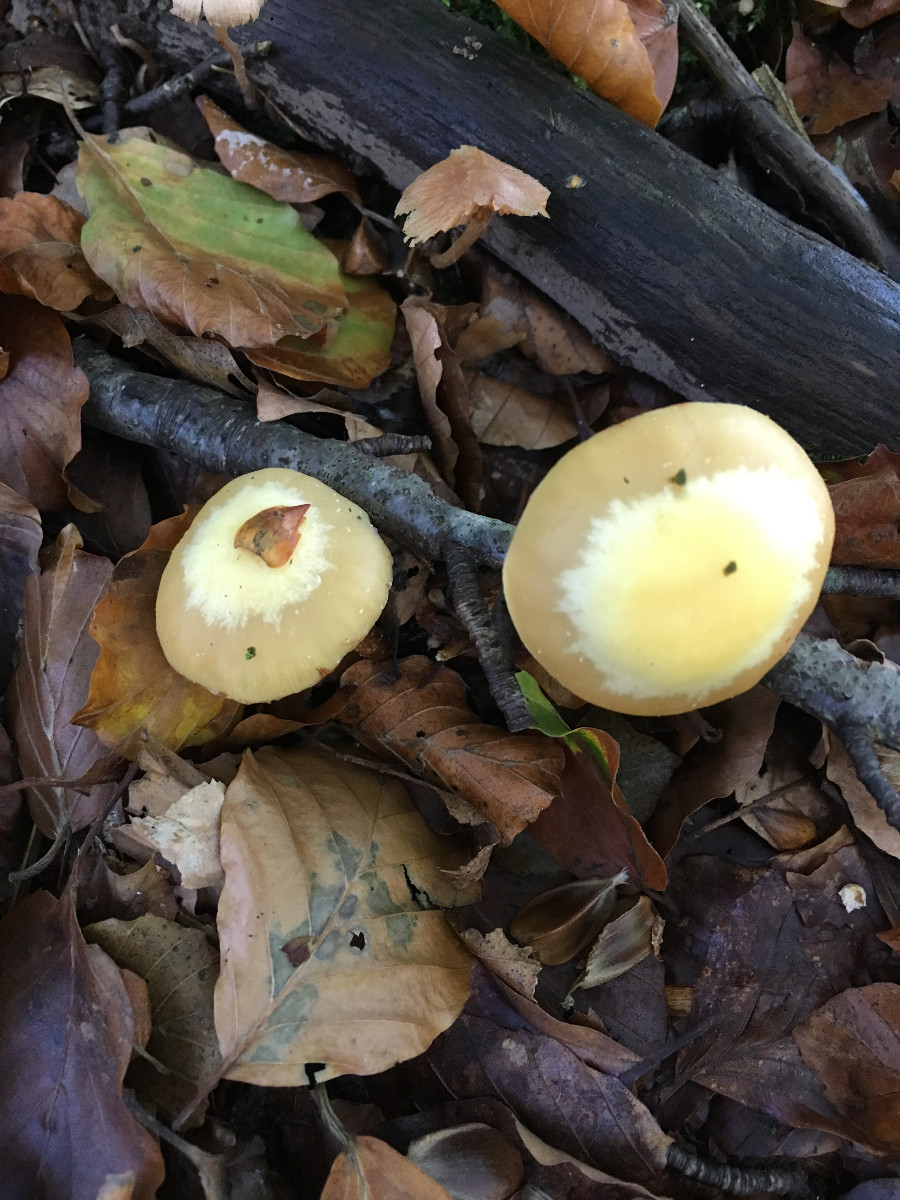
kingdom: Fungi
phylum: Basidiomycota
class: Agaricomycetes
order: Agaricales
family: Strophariaceae
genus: Kuehneromyces
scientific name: Kuehneromyces mutabilis
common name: foranderlig skælhat
